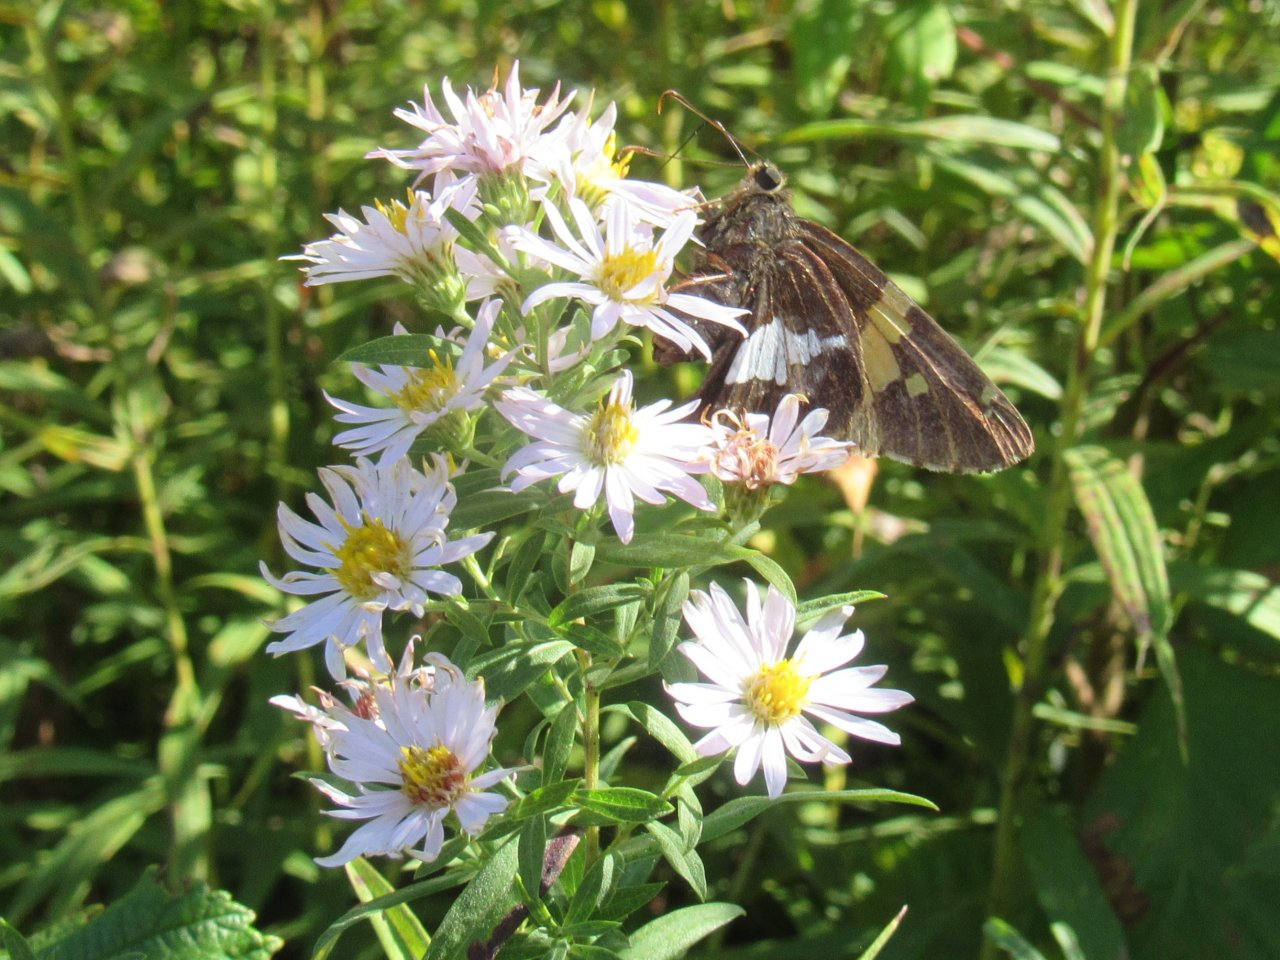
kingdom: Animalia
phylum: Arthropoda
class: Insecta
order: Lepidoptera
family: Hesperiidae
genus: Epargyreus
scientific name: Epargyreus clarus
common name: Silver-spotted Skipper
